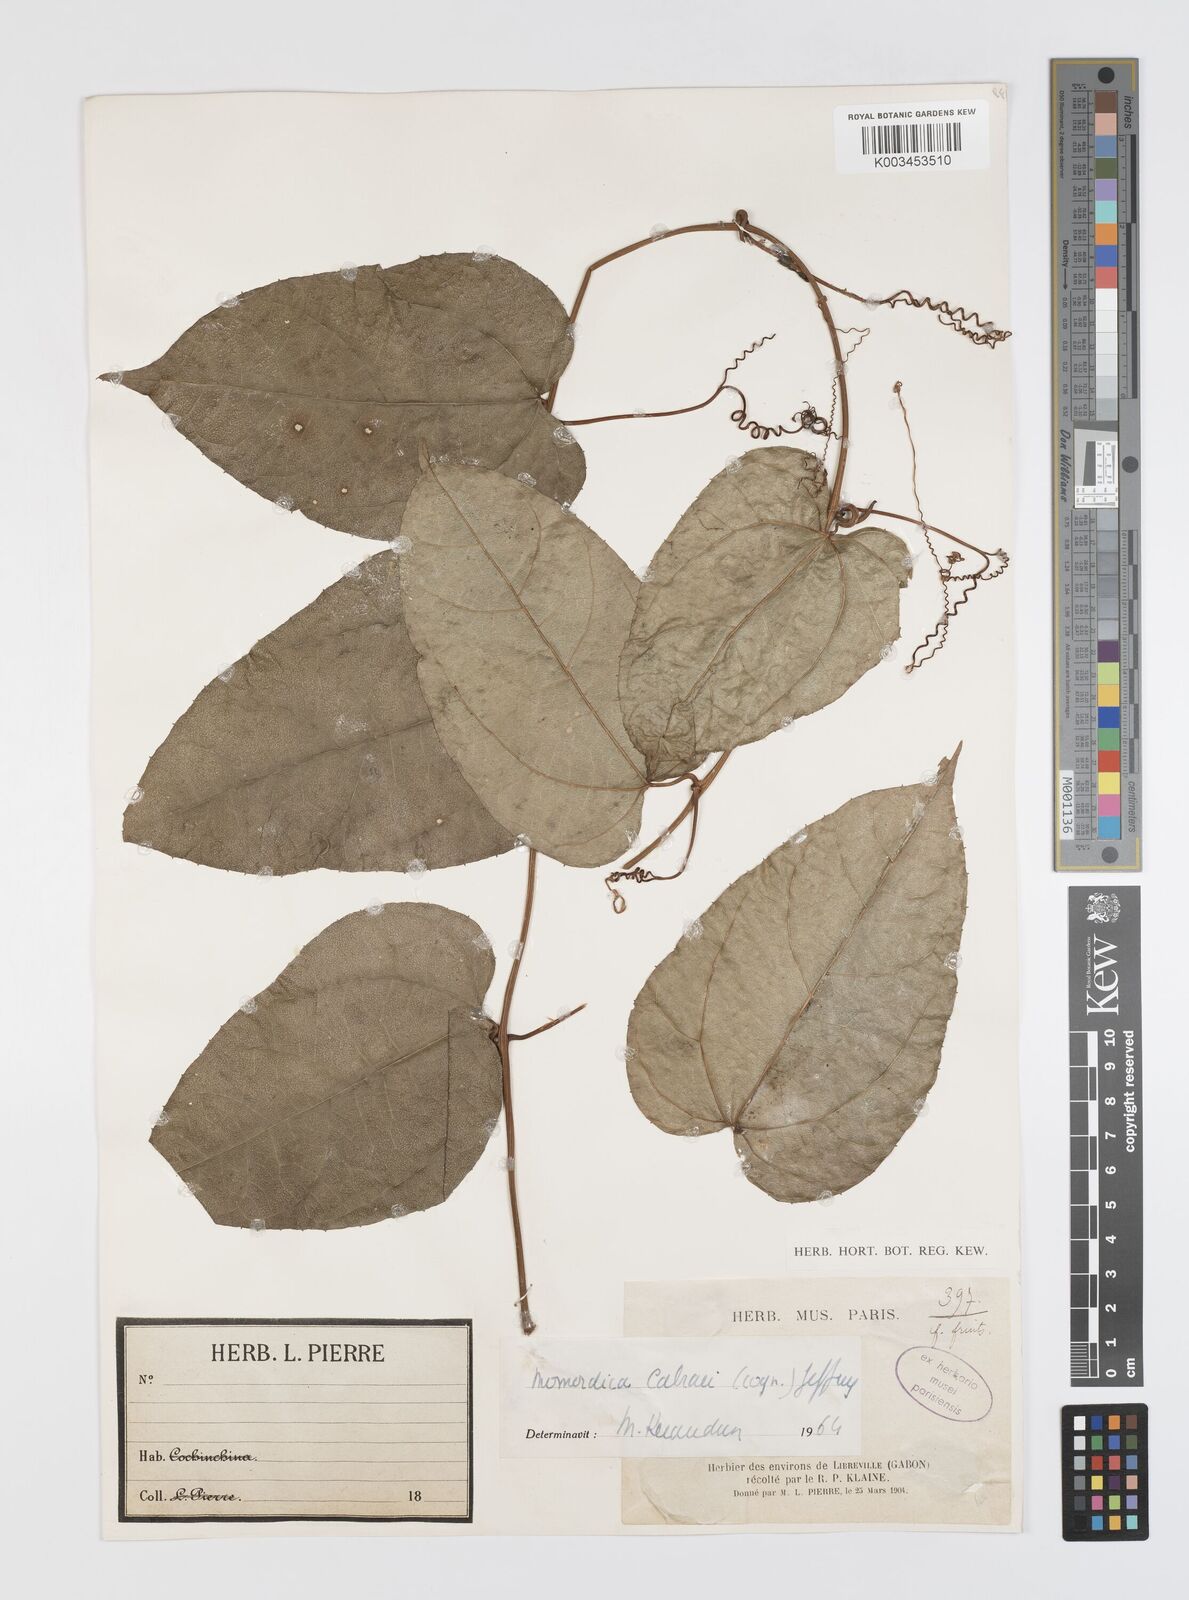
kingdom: Plantae
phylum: Tracheophyta
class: Magnoliopsida
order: Cucurbitales
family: Cucurbitaceae
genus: Momordica
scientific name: Momordica cabrae
